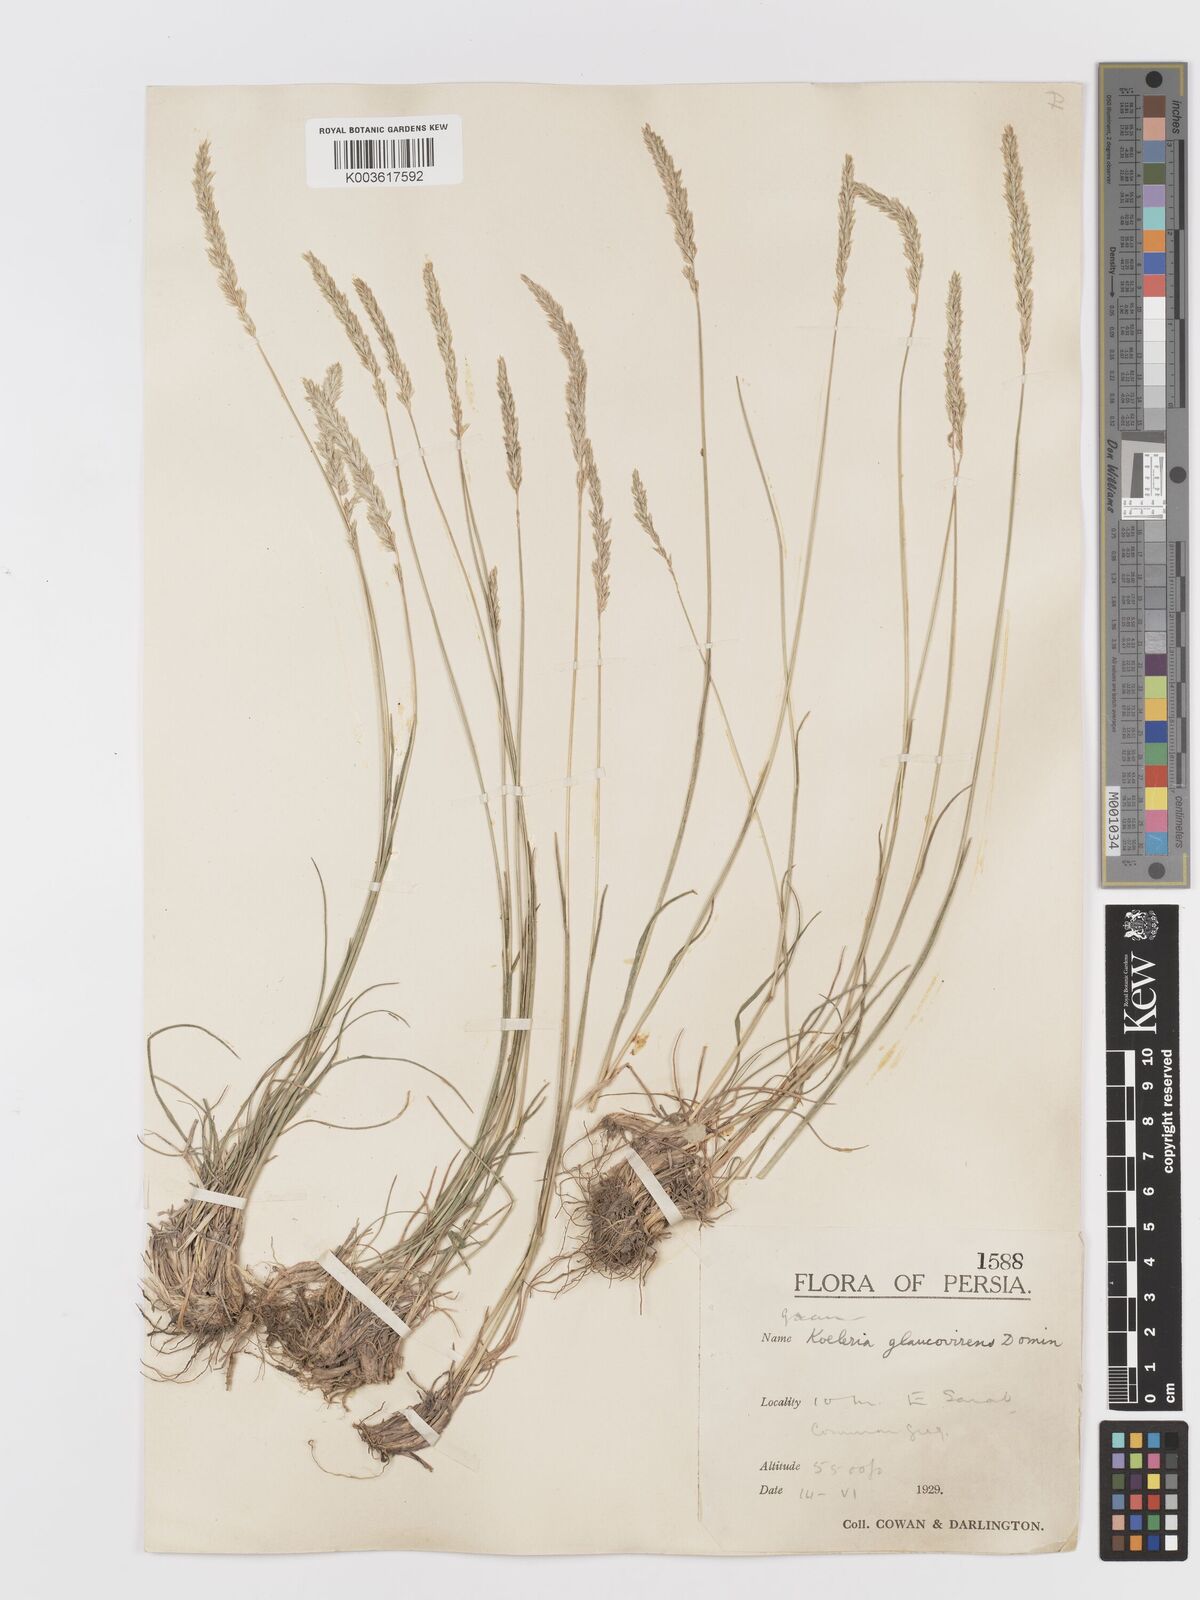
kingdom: Plantae
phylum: Tracheophyta
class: Liliopsida
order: Poales
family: Poaceae
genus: Koeleria
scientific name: Koeleria macrantha
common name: Crested hair-grass
